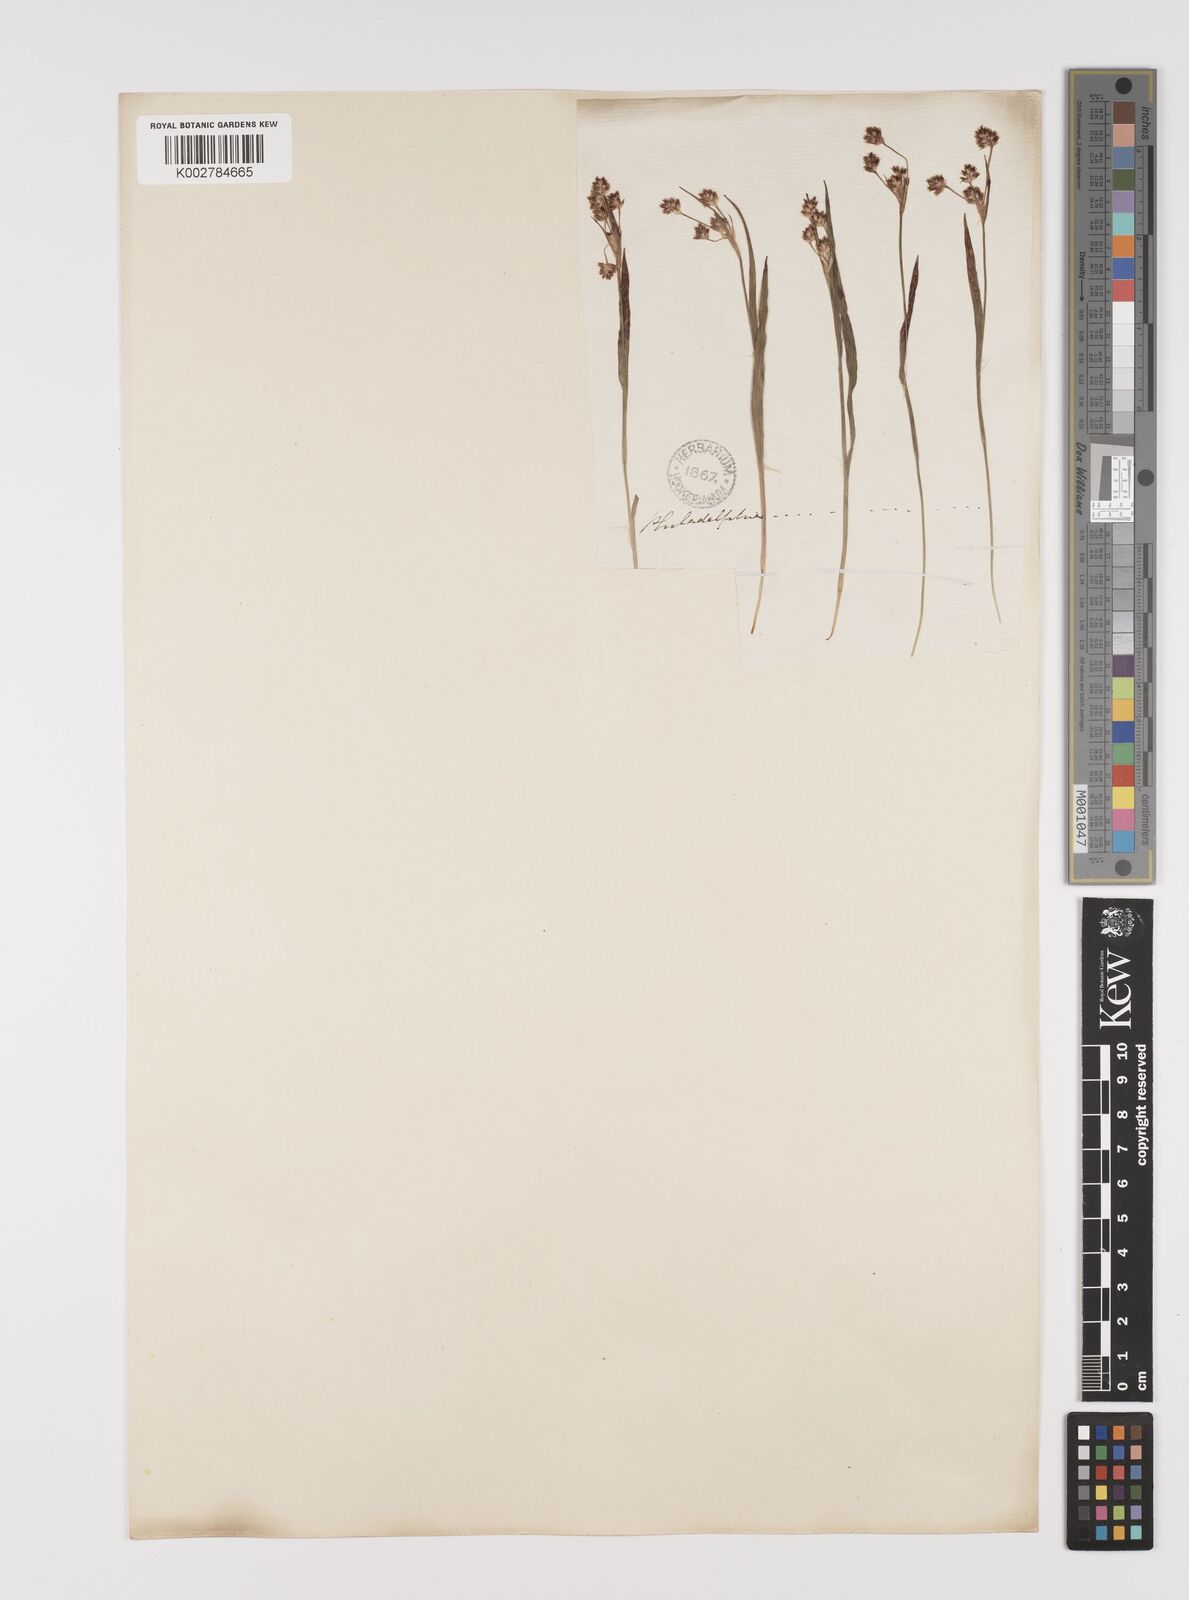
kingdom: Plantae
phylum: Tracheophyta
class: Liliopsida
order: Poales
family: Juncaceae
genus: Luzula
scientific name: Luzula campestris
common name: Field wood-rush
